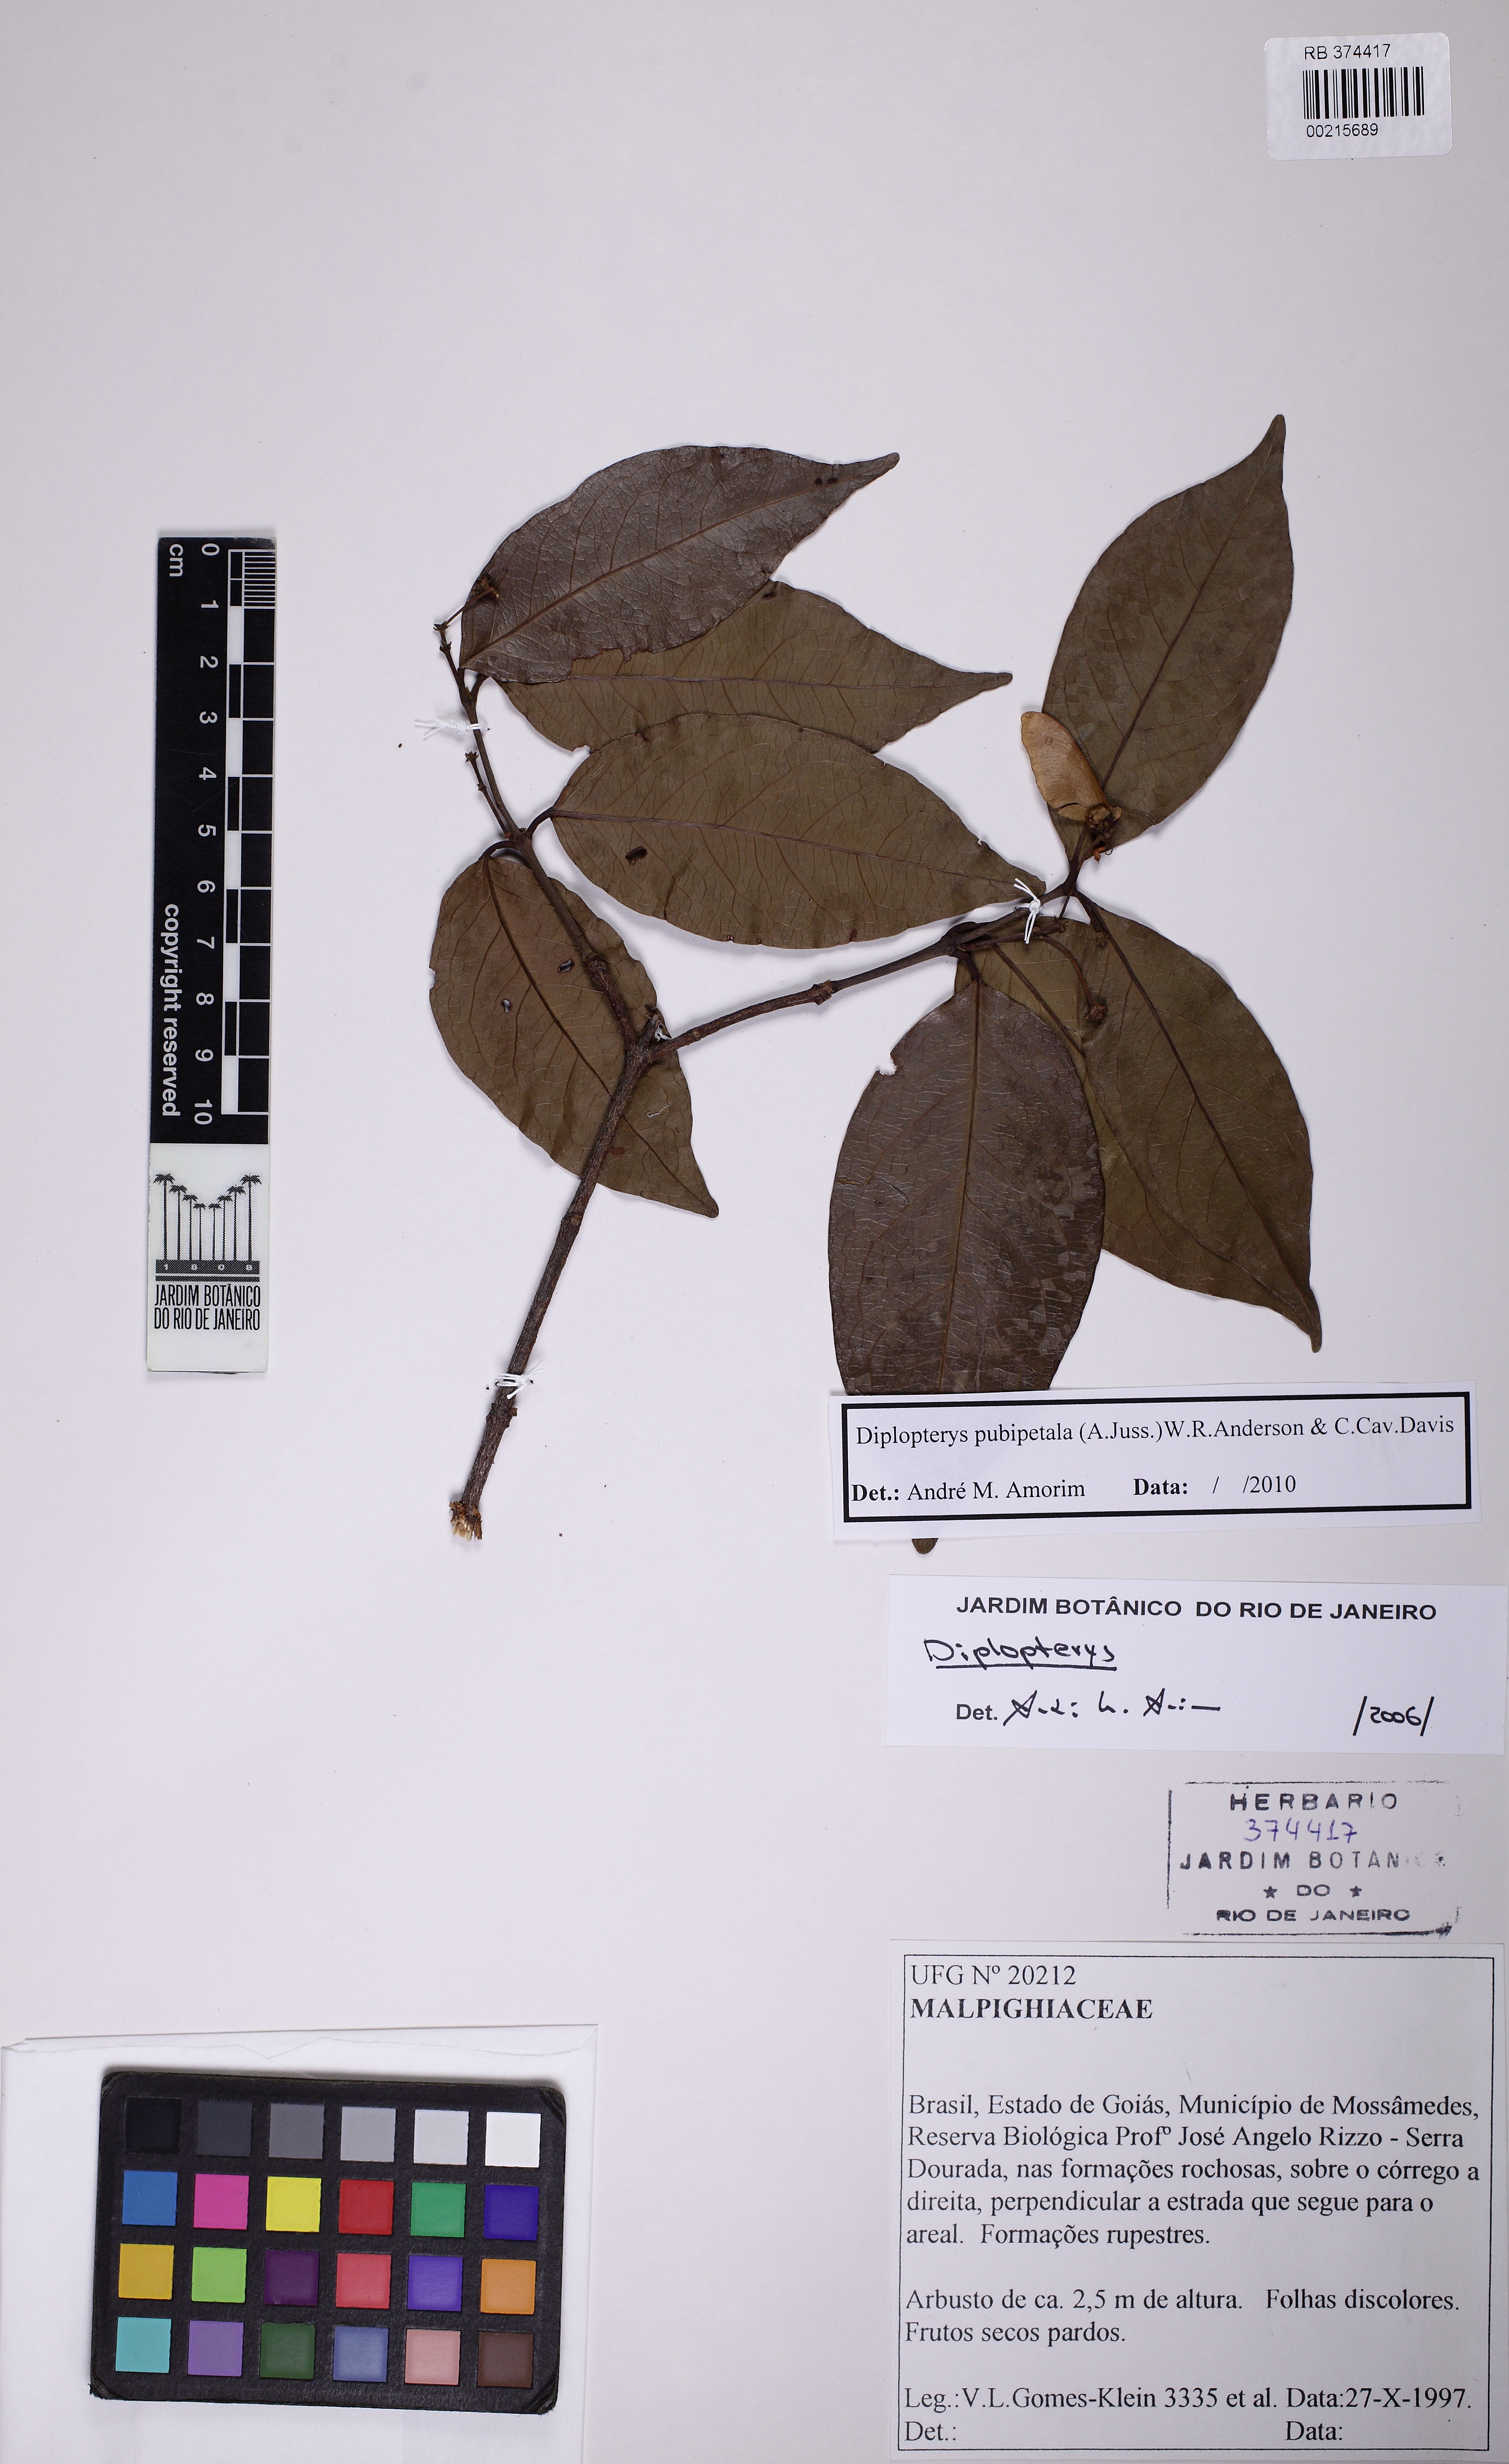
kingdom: Plantae
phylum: Tracheophyta
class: Magnoliopsida
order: Malpighiales
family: Malpighiaceae
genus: Diplopterys
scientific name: Diplopterys pubipetala
